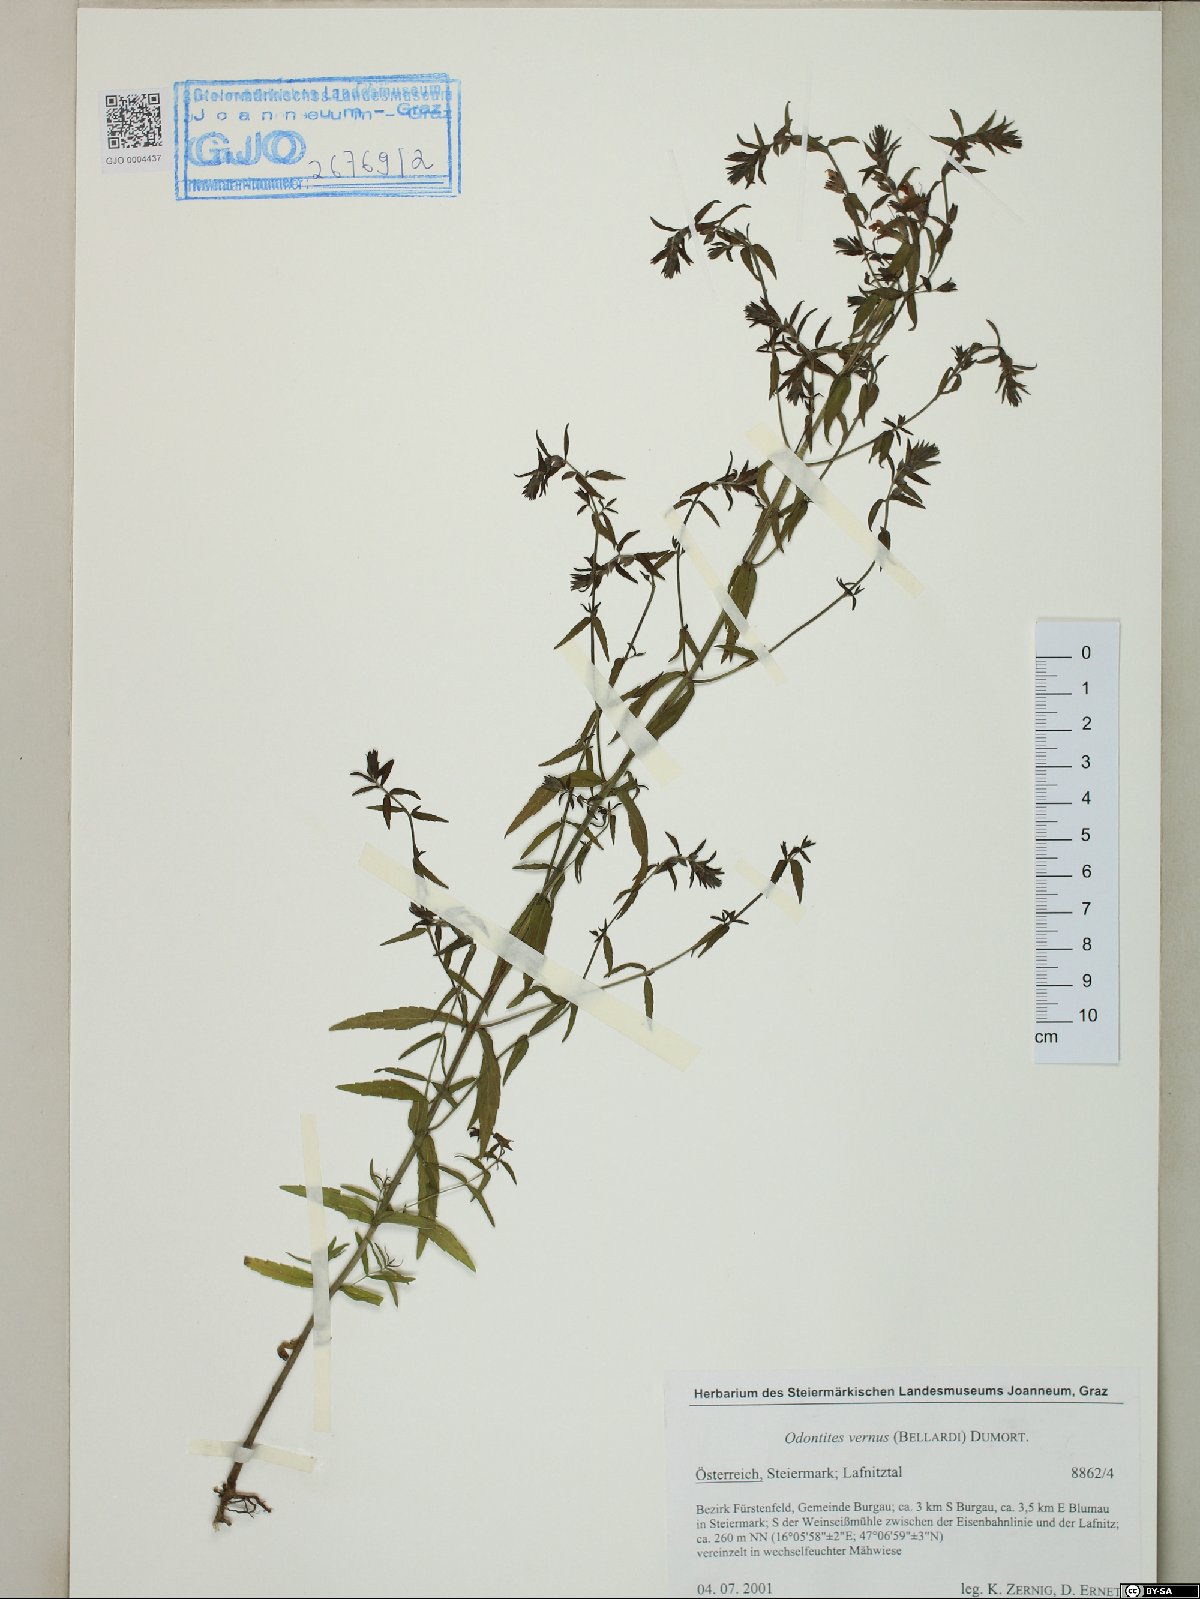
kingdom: Plantae
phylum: Tracheophyta
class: Magnoliopsida
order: Lamiales
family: Orobanchaceae
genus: Odontites
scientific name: Odontites vernus
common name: Red bartsia
